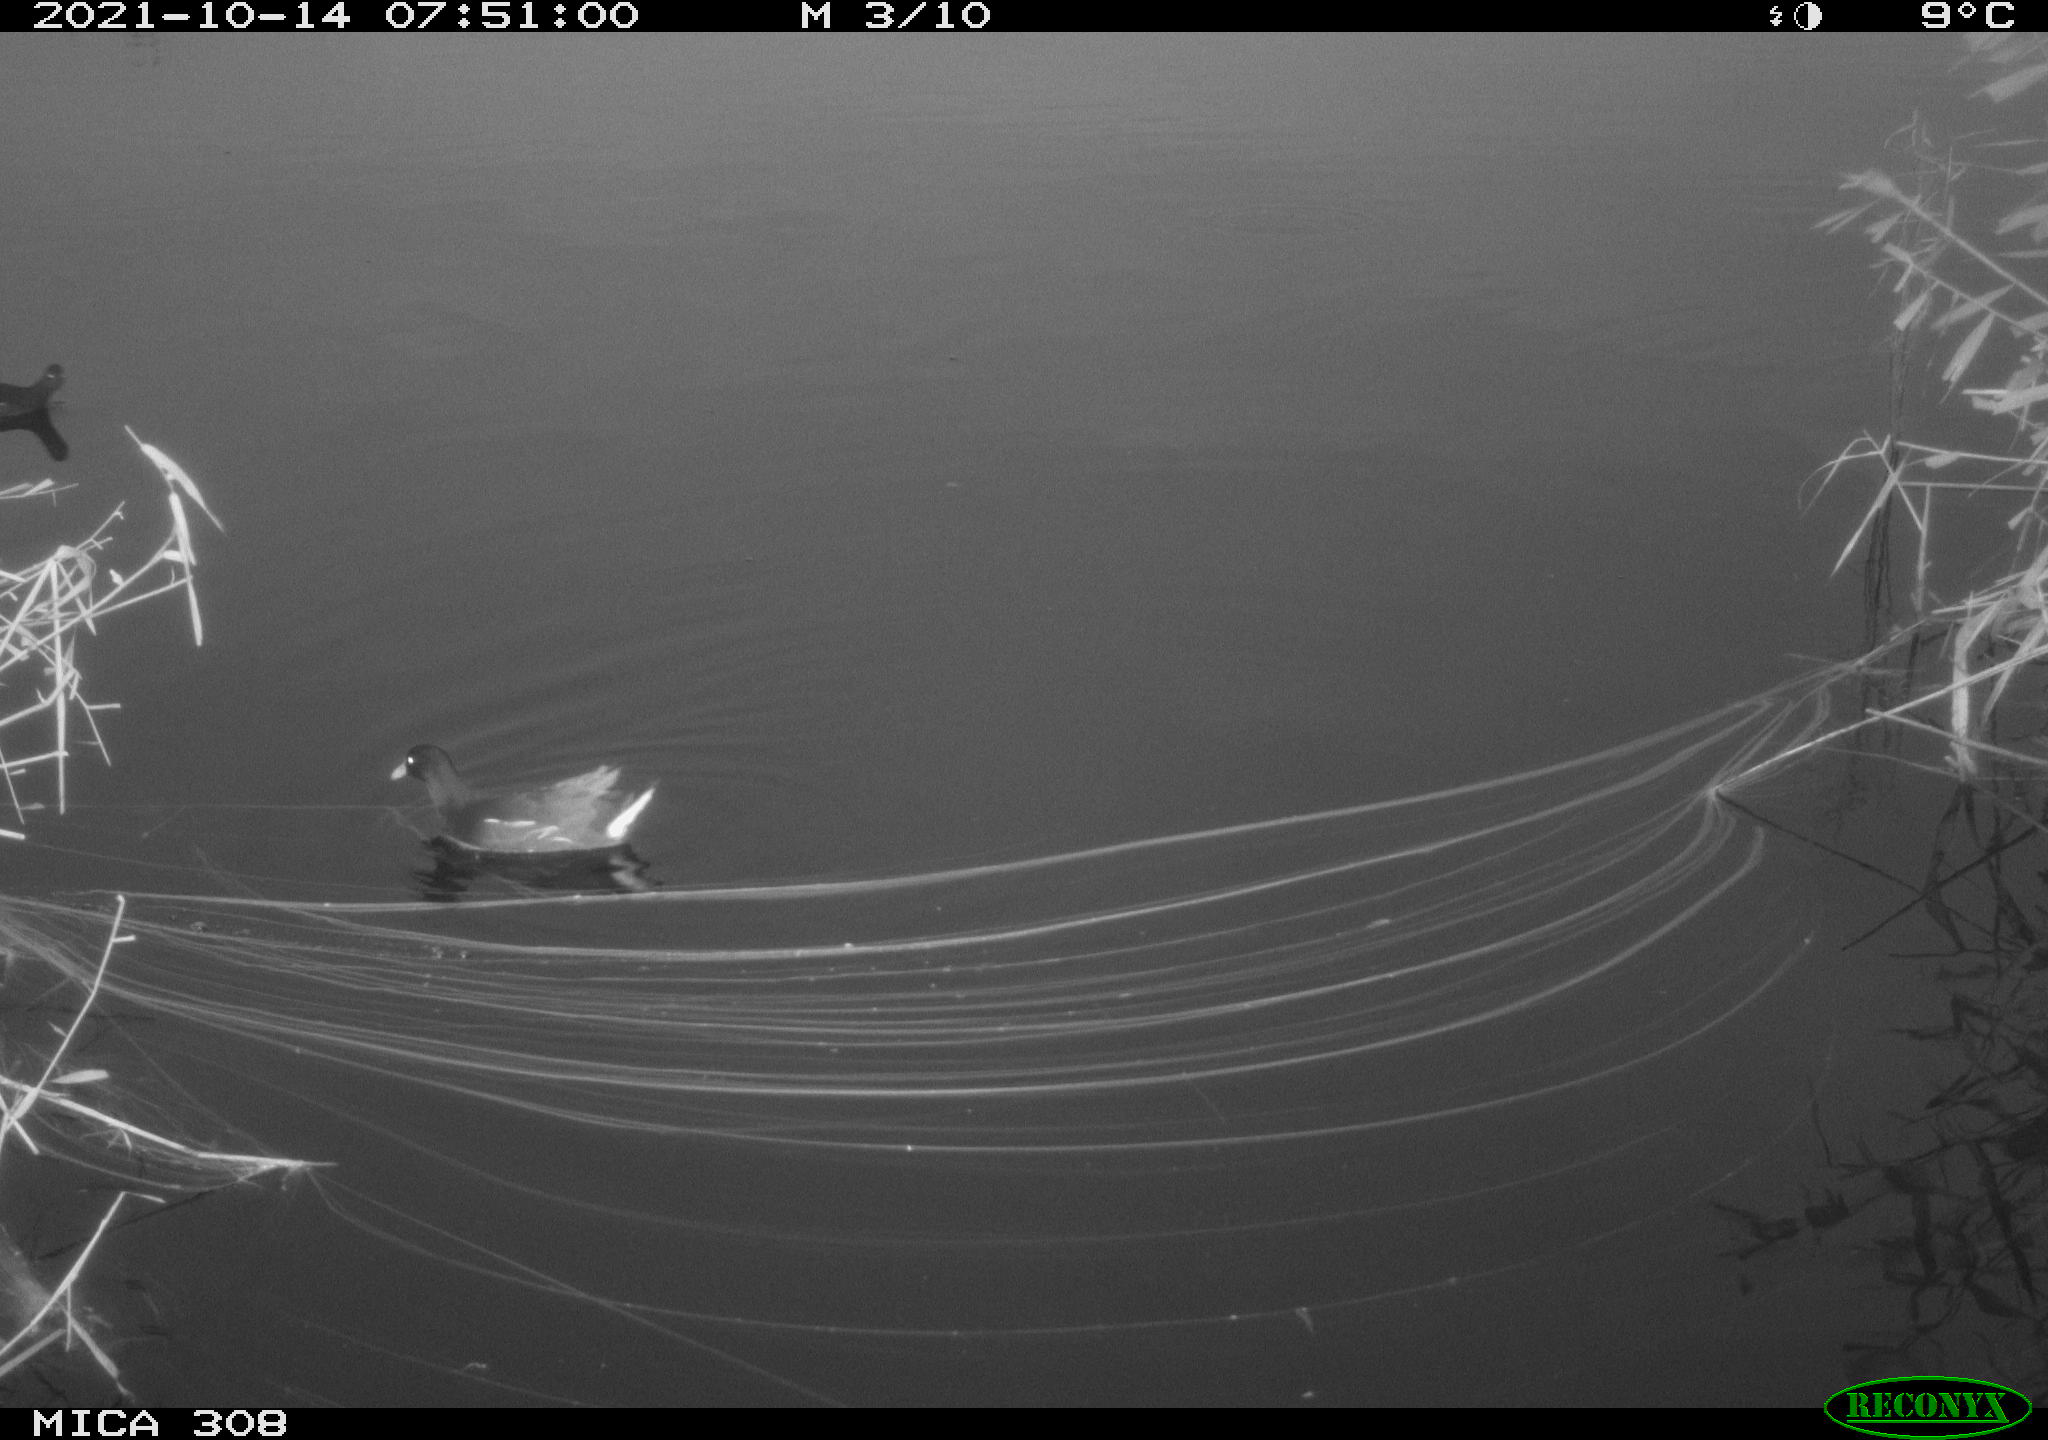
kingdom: Animalia
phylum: Chordata
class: Aves
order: Gruiformes
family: Rallidae
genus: Gallinula
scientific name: Gallinula chloropus
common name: Common moorhen
